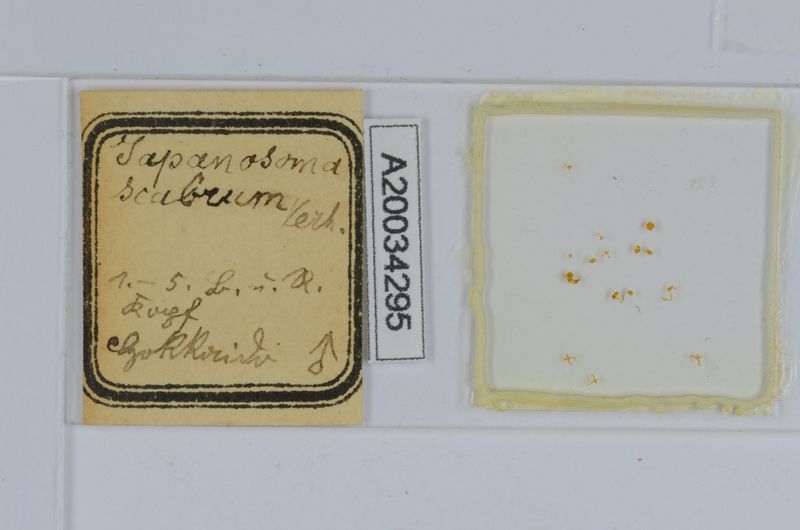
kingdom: Animalia
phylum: Arthropoda
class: Diplopoda
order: Chordeumatida
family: Conotylidae
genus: Japanosoma
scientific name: Japanosoma scabrum
